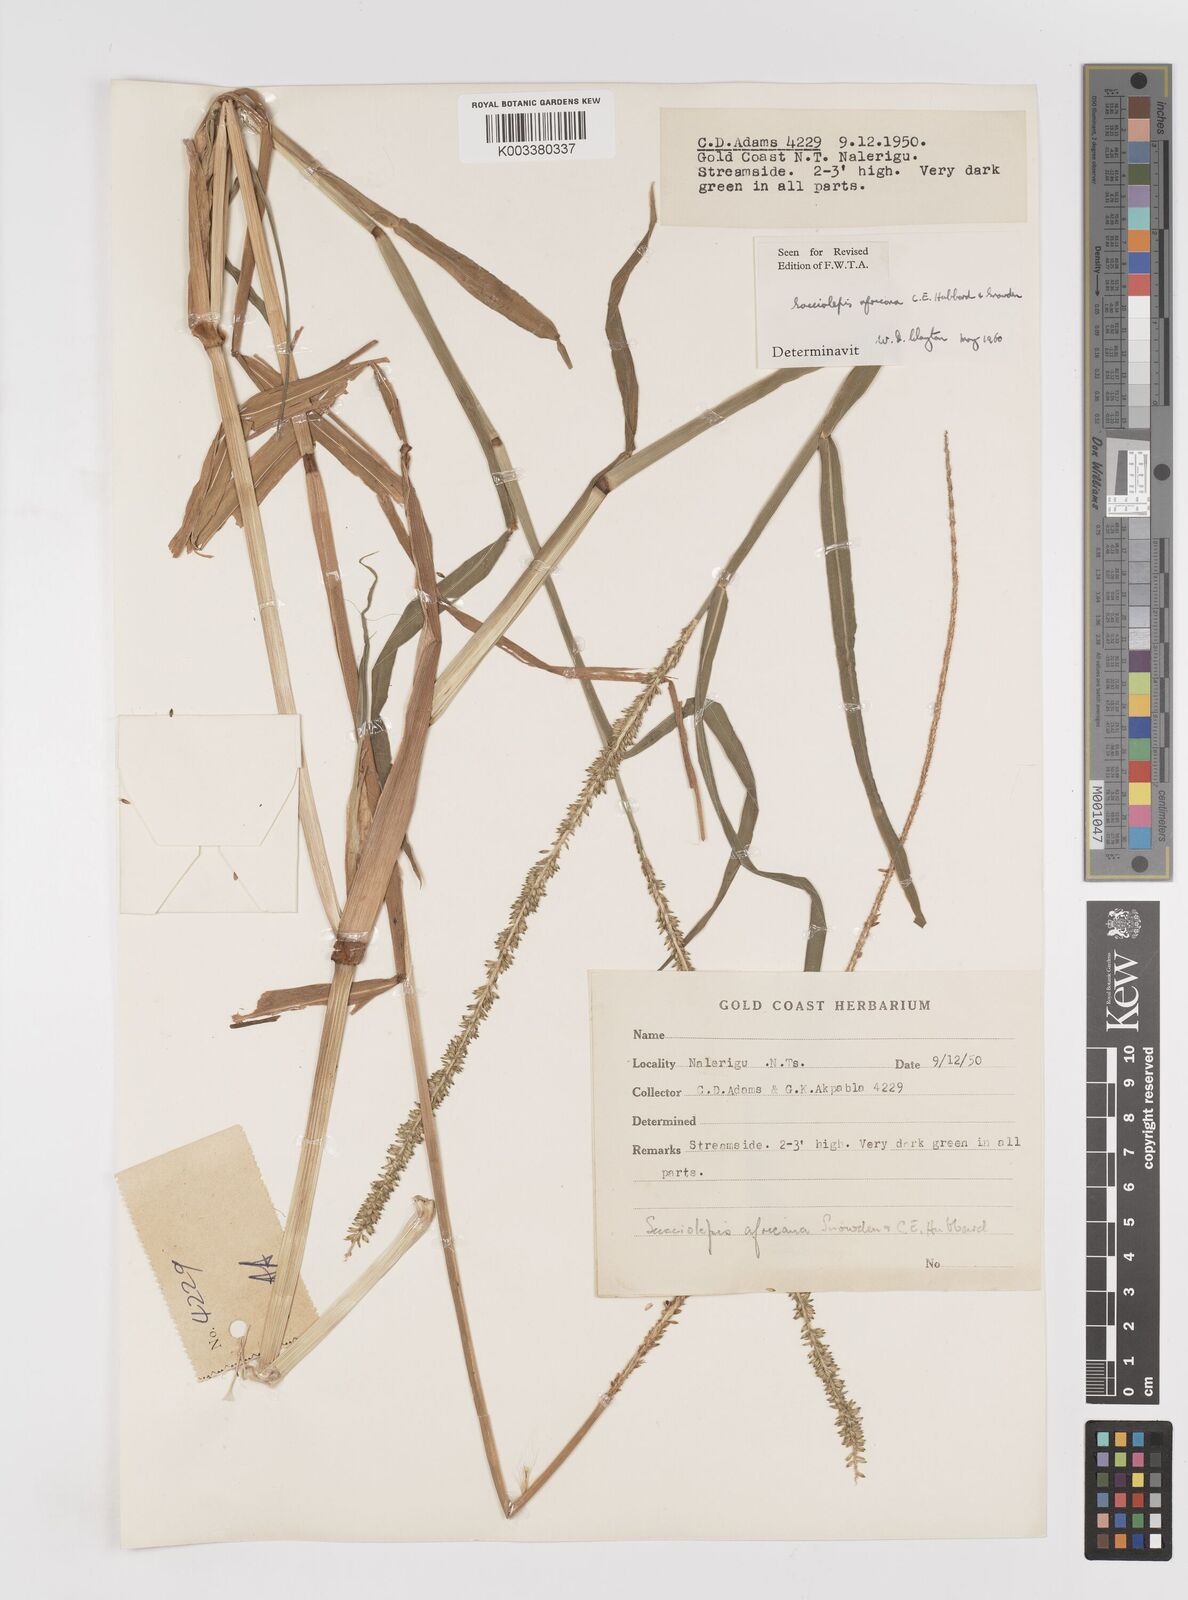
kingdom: Plantae
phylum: Tracheophyta
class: Liliopsida
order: Poales
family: Poaceae
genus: Sacciolepis
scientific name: Sacciolepis africana
